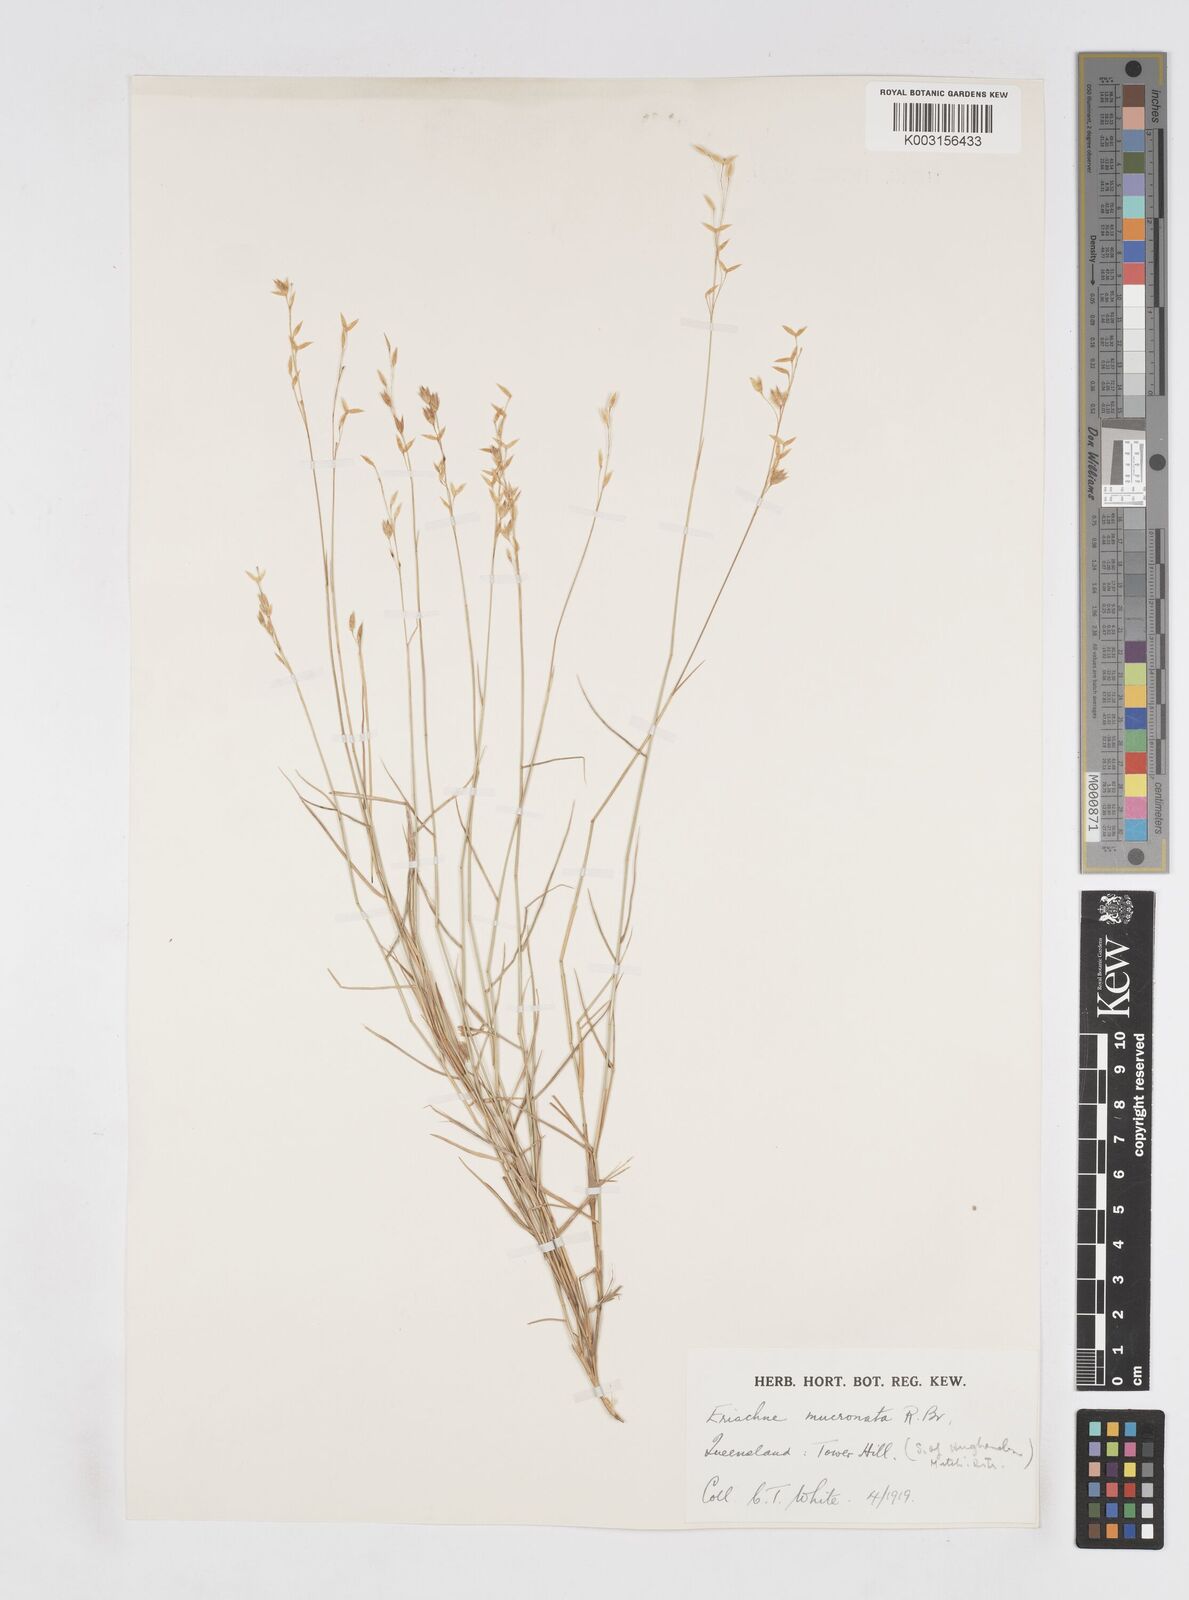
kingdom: Plantae
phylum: Tracheophyta
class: Liliopsida
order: Poales
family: Poaceae
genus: Eriachne
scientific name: Eriachne mucronata
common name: Mountain wanderrie grass
